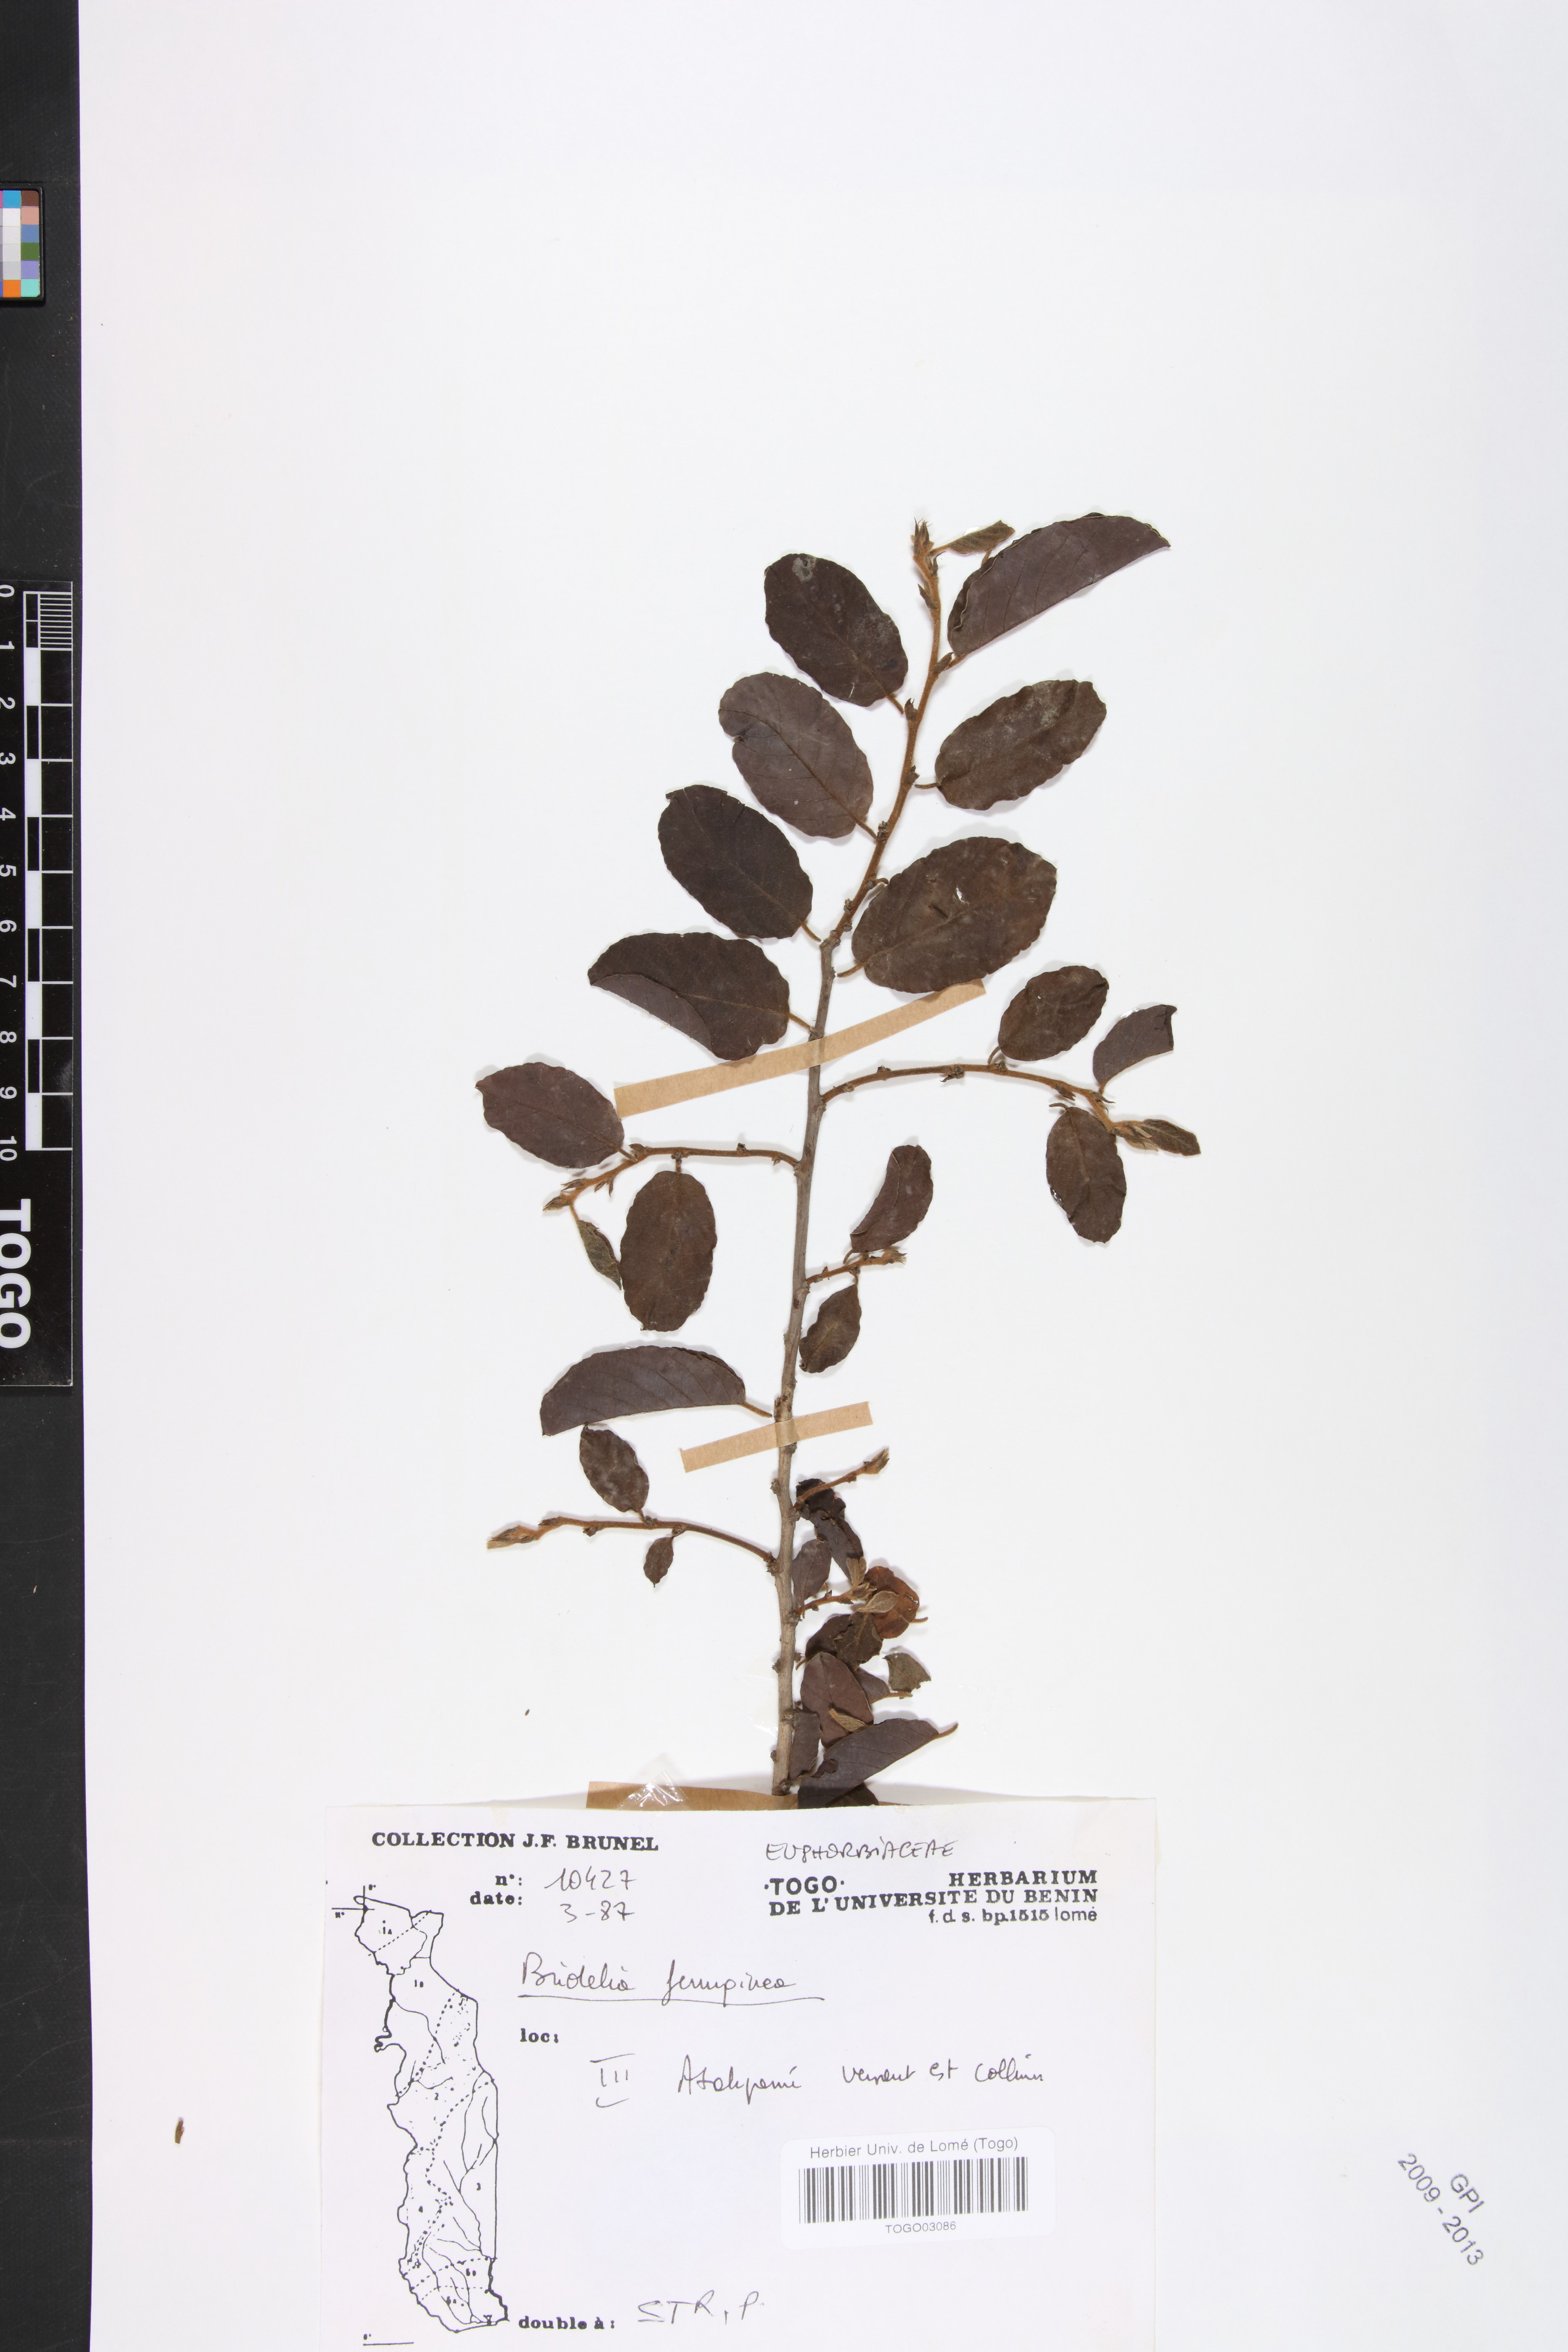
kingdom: Plantae
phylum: Tracheophyta
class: Magnoliopsida
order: Malpighiales
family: Phyllanthaceae
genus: Bridelia
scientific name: Bridelia ferruginea
